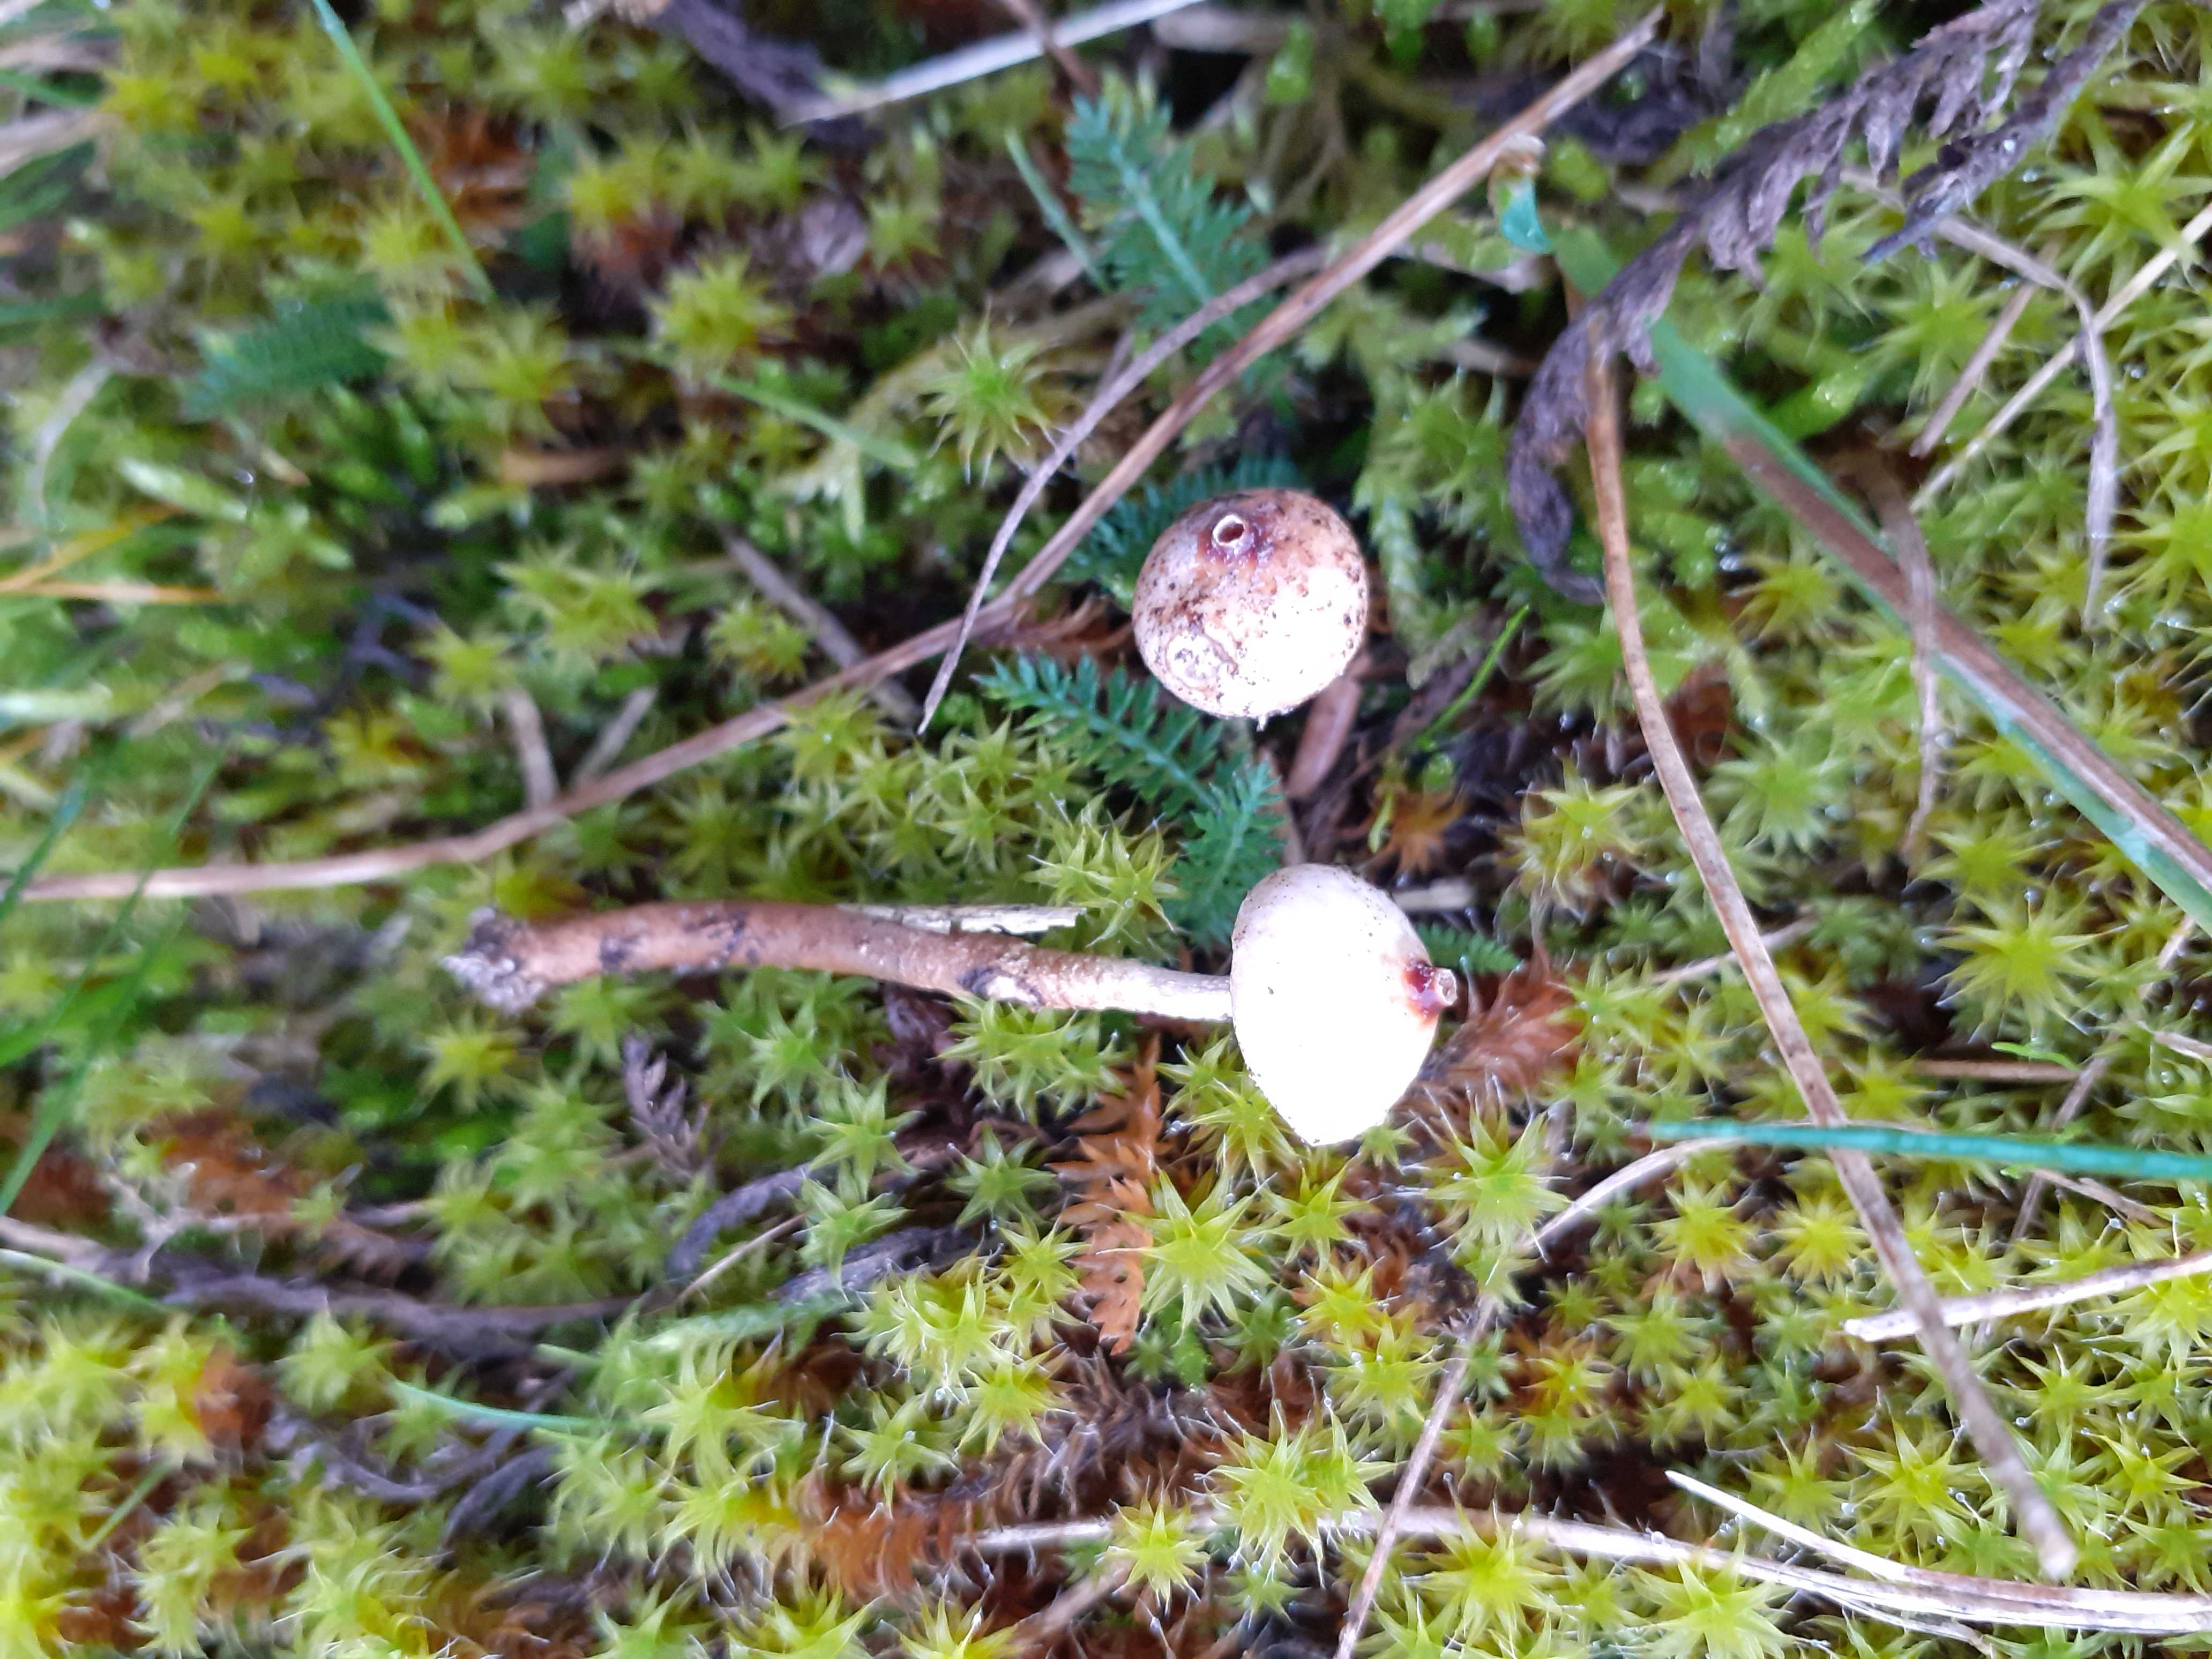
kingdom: Fungi
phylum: Basidiomycota
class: Agaricomycetes
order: Agaricales
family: Agaricaceae
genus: Tulostoma
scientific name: Tulostoma brumale
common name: vinter-stilkbovist
